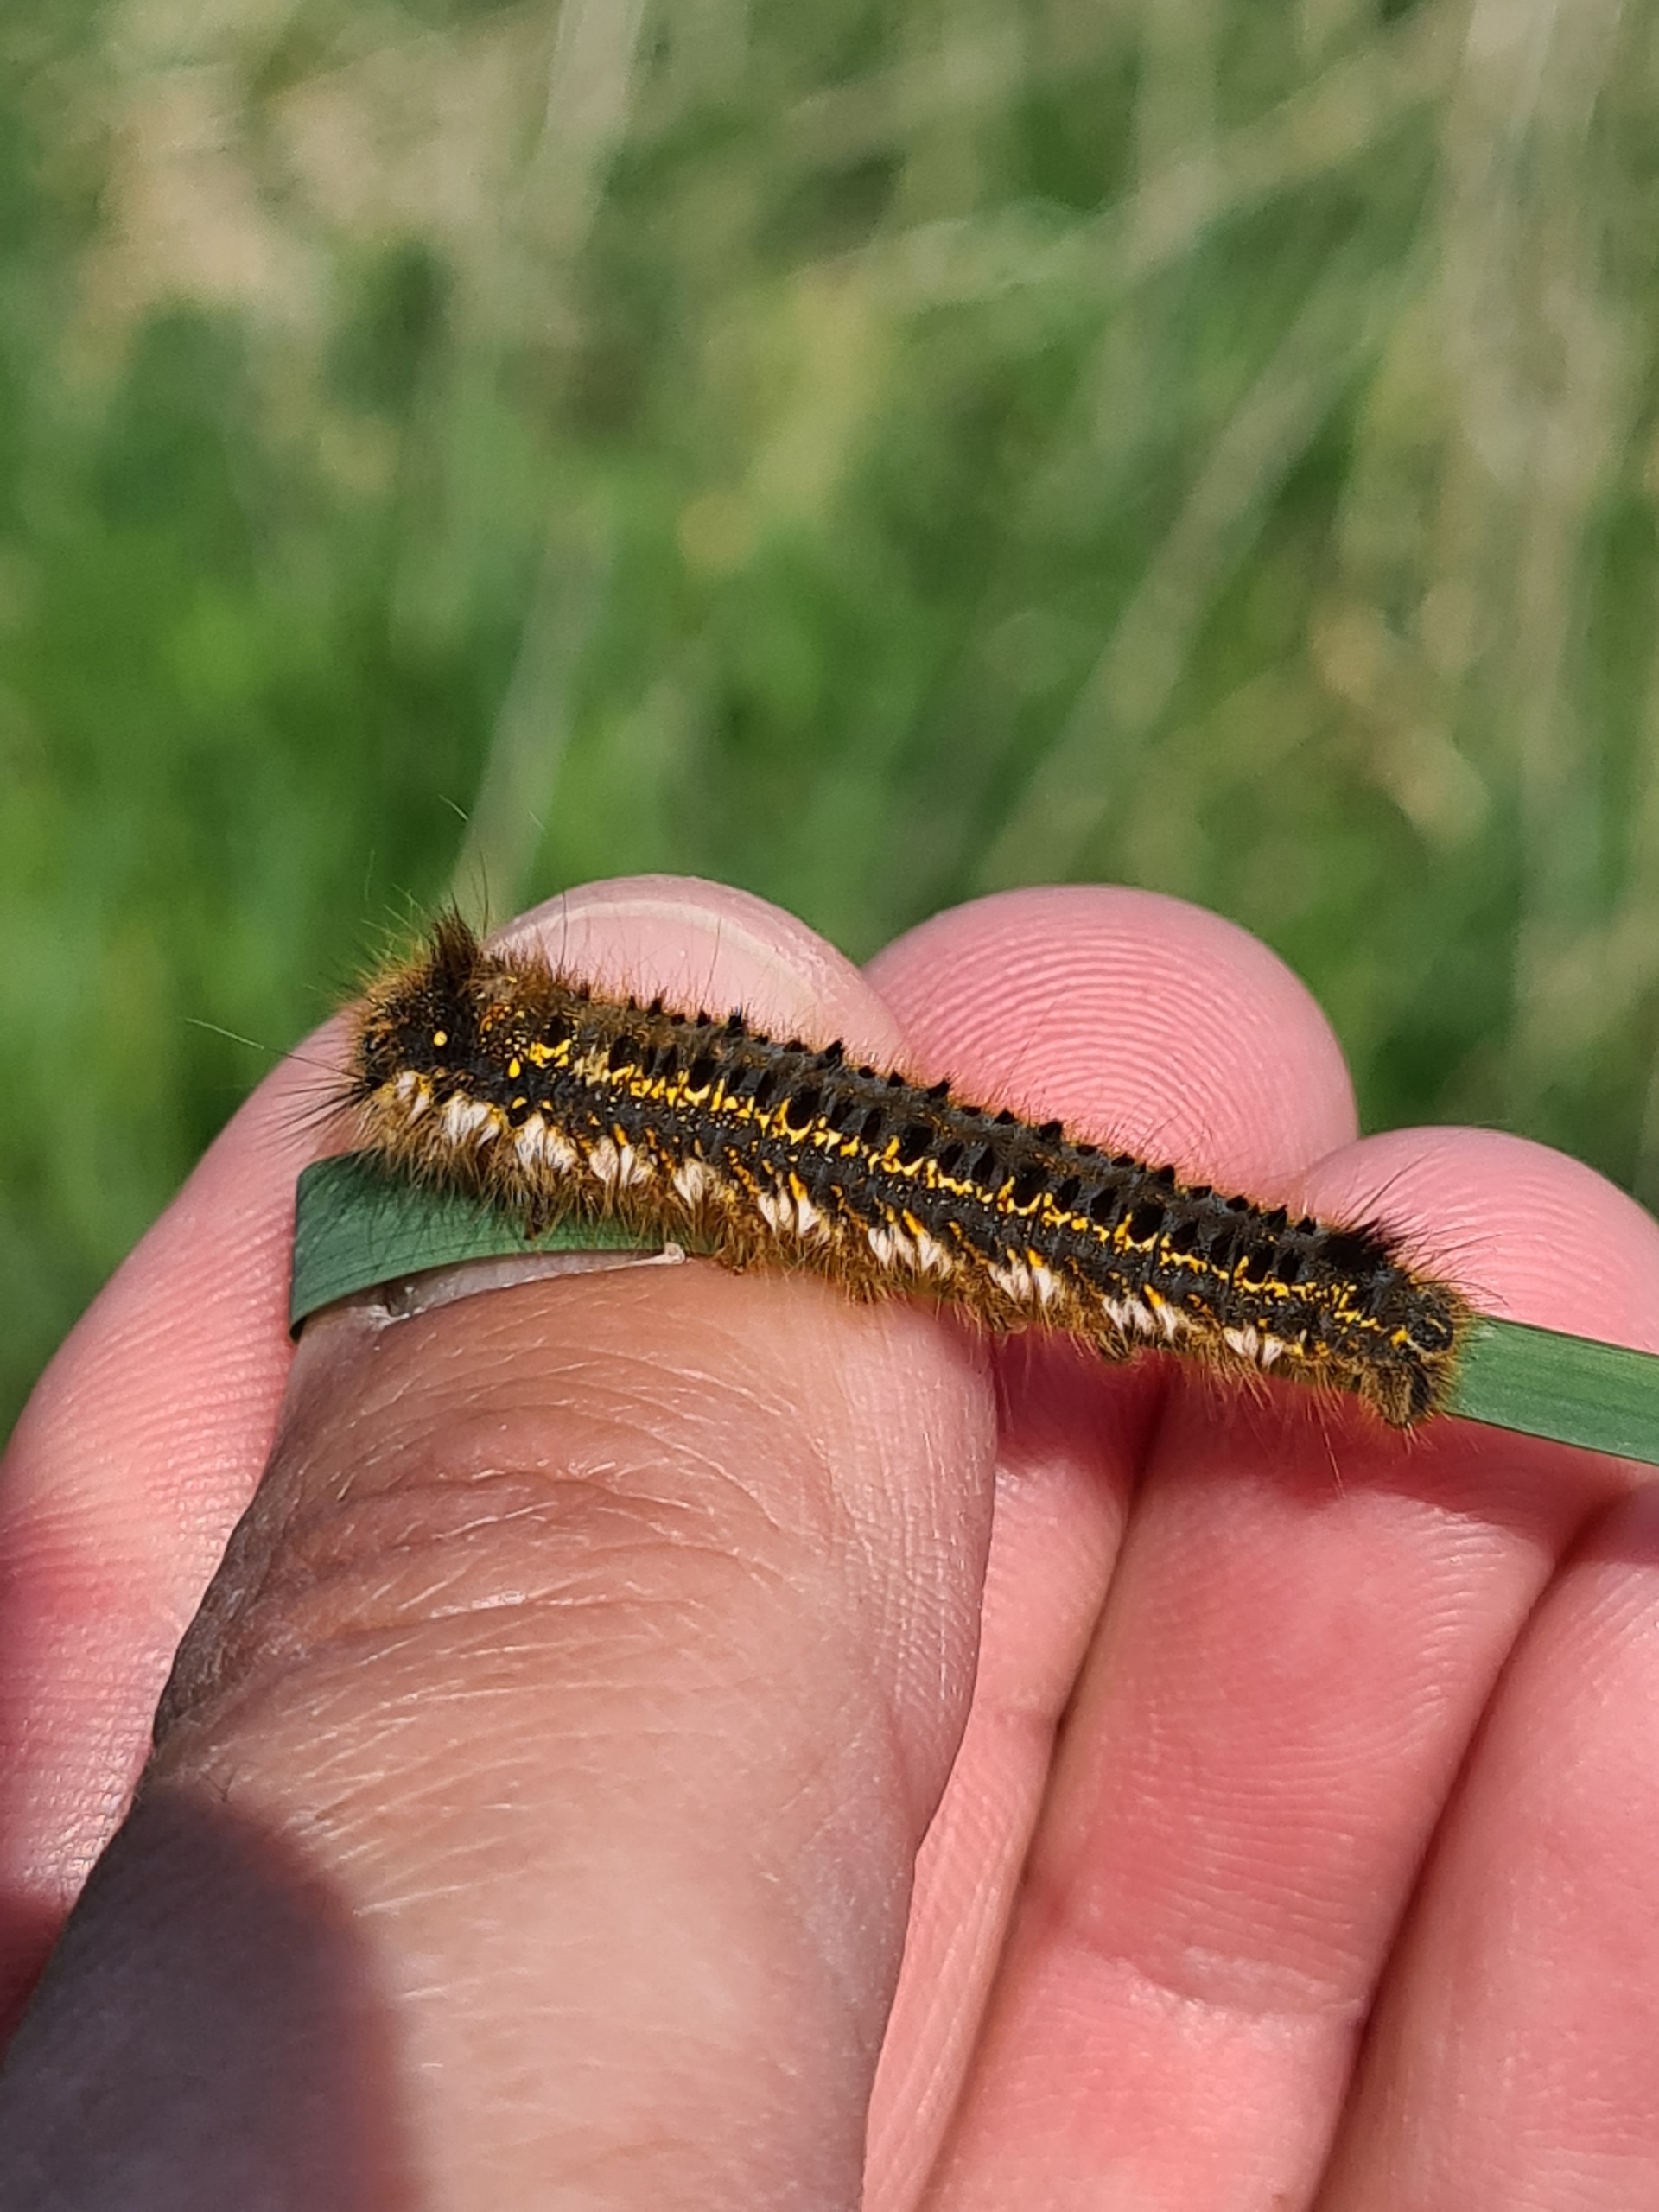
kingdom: Animalia
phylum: Arthropoda
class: Insecta
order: Lepidoptera
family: Lasiocampidae
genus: Euthrix
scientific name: Euthrix potatoria
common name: Græsspinder
